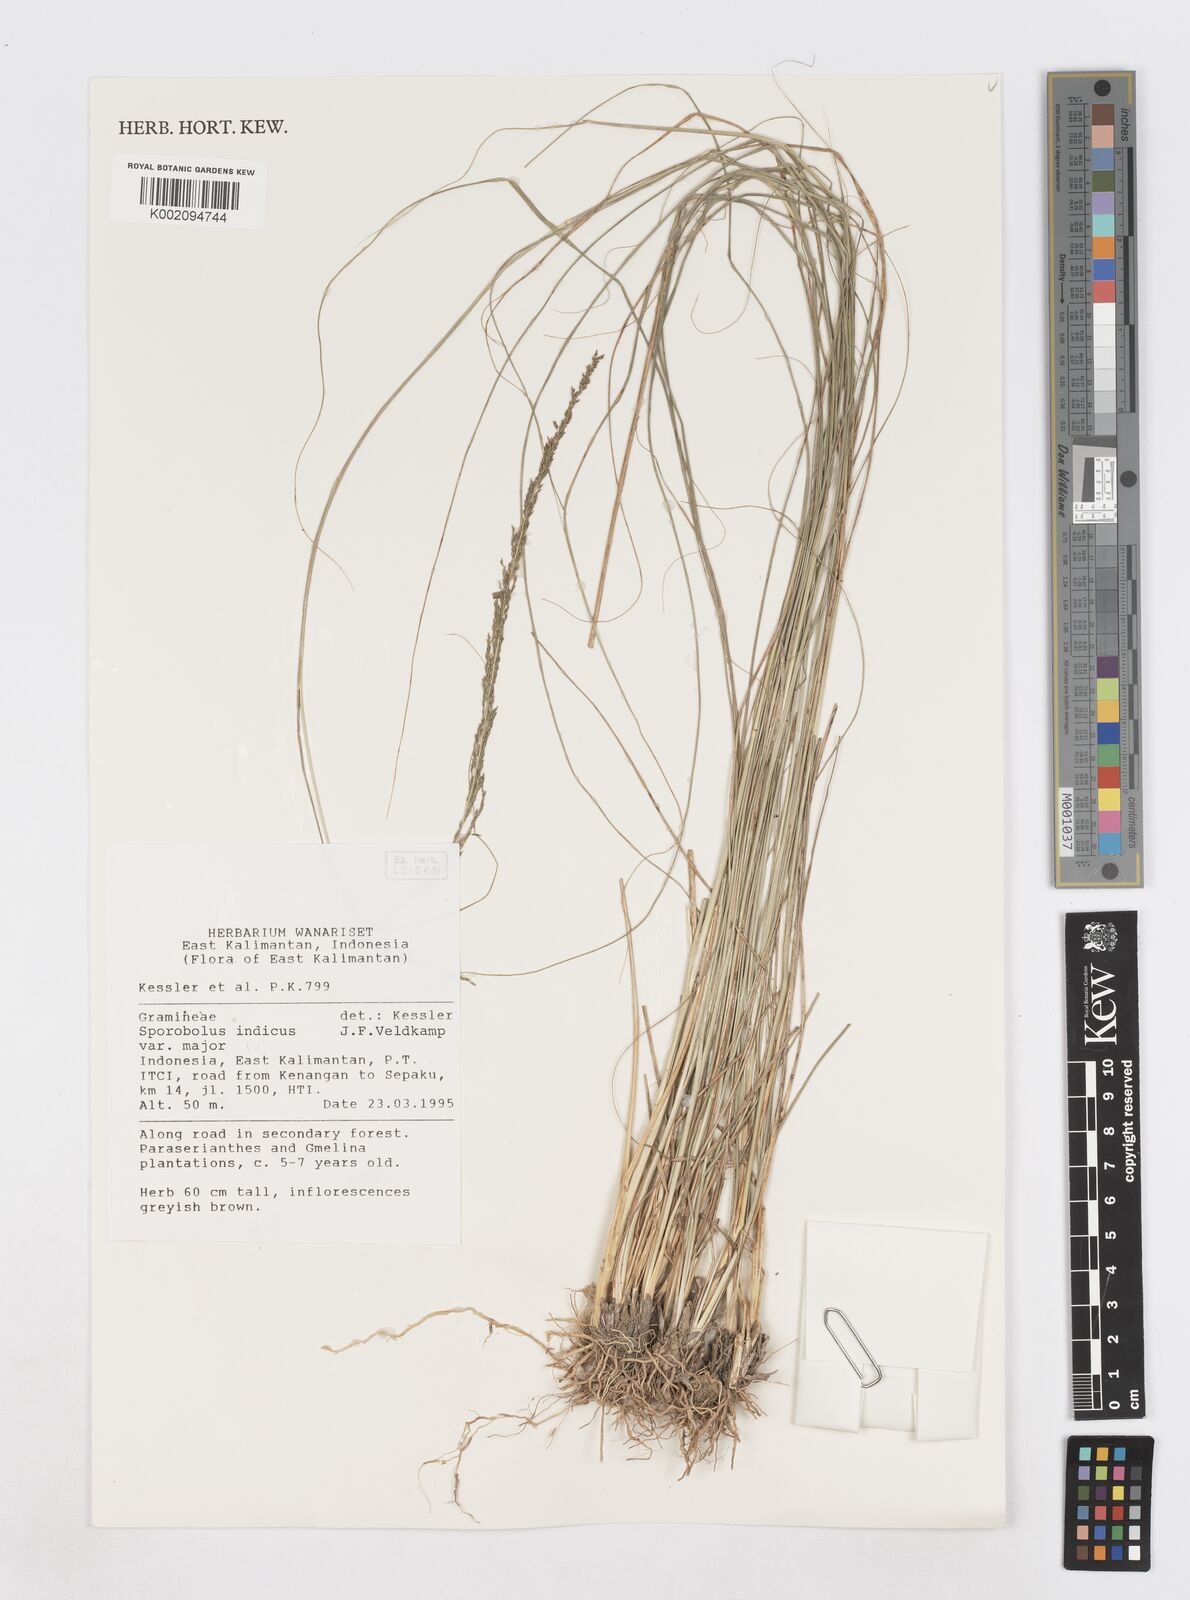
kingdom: Plantae
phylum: Tracheophyta
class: Liliopsida
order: Poales
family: Poaceae
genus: Sporobolus
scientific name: Sporobolus fertilis
